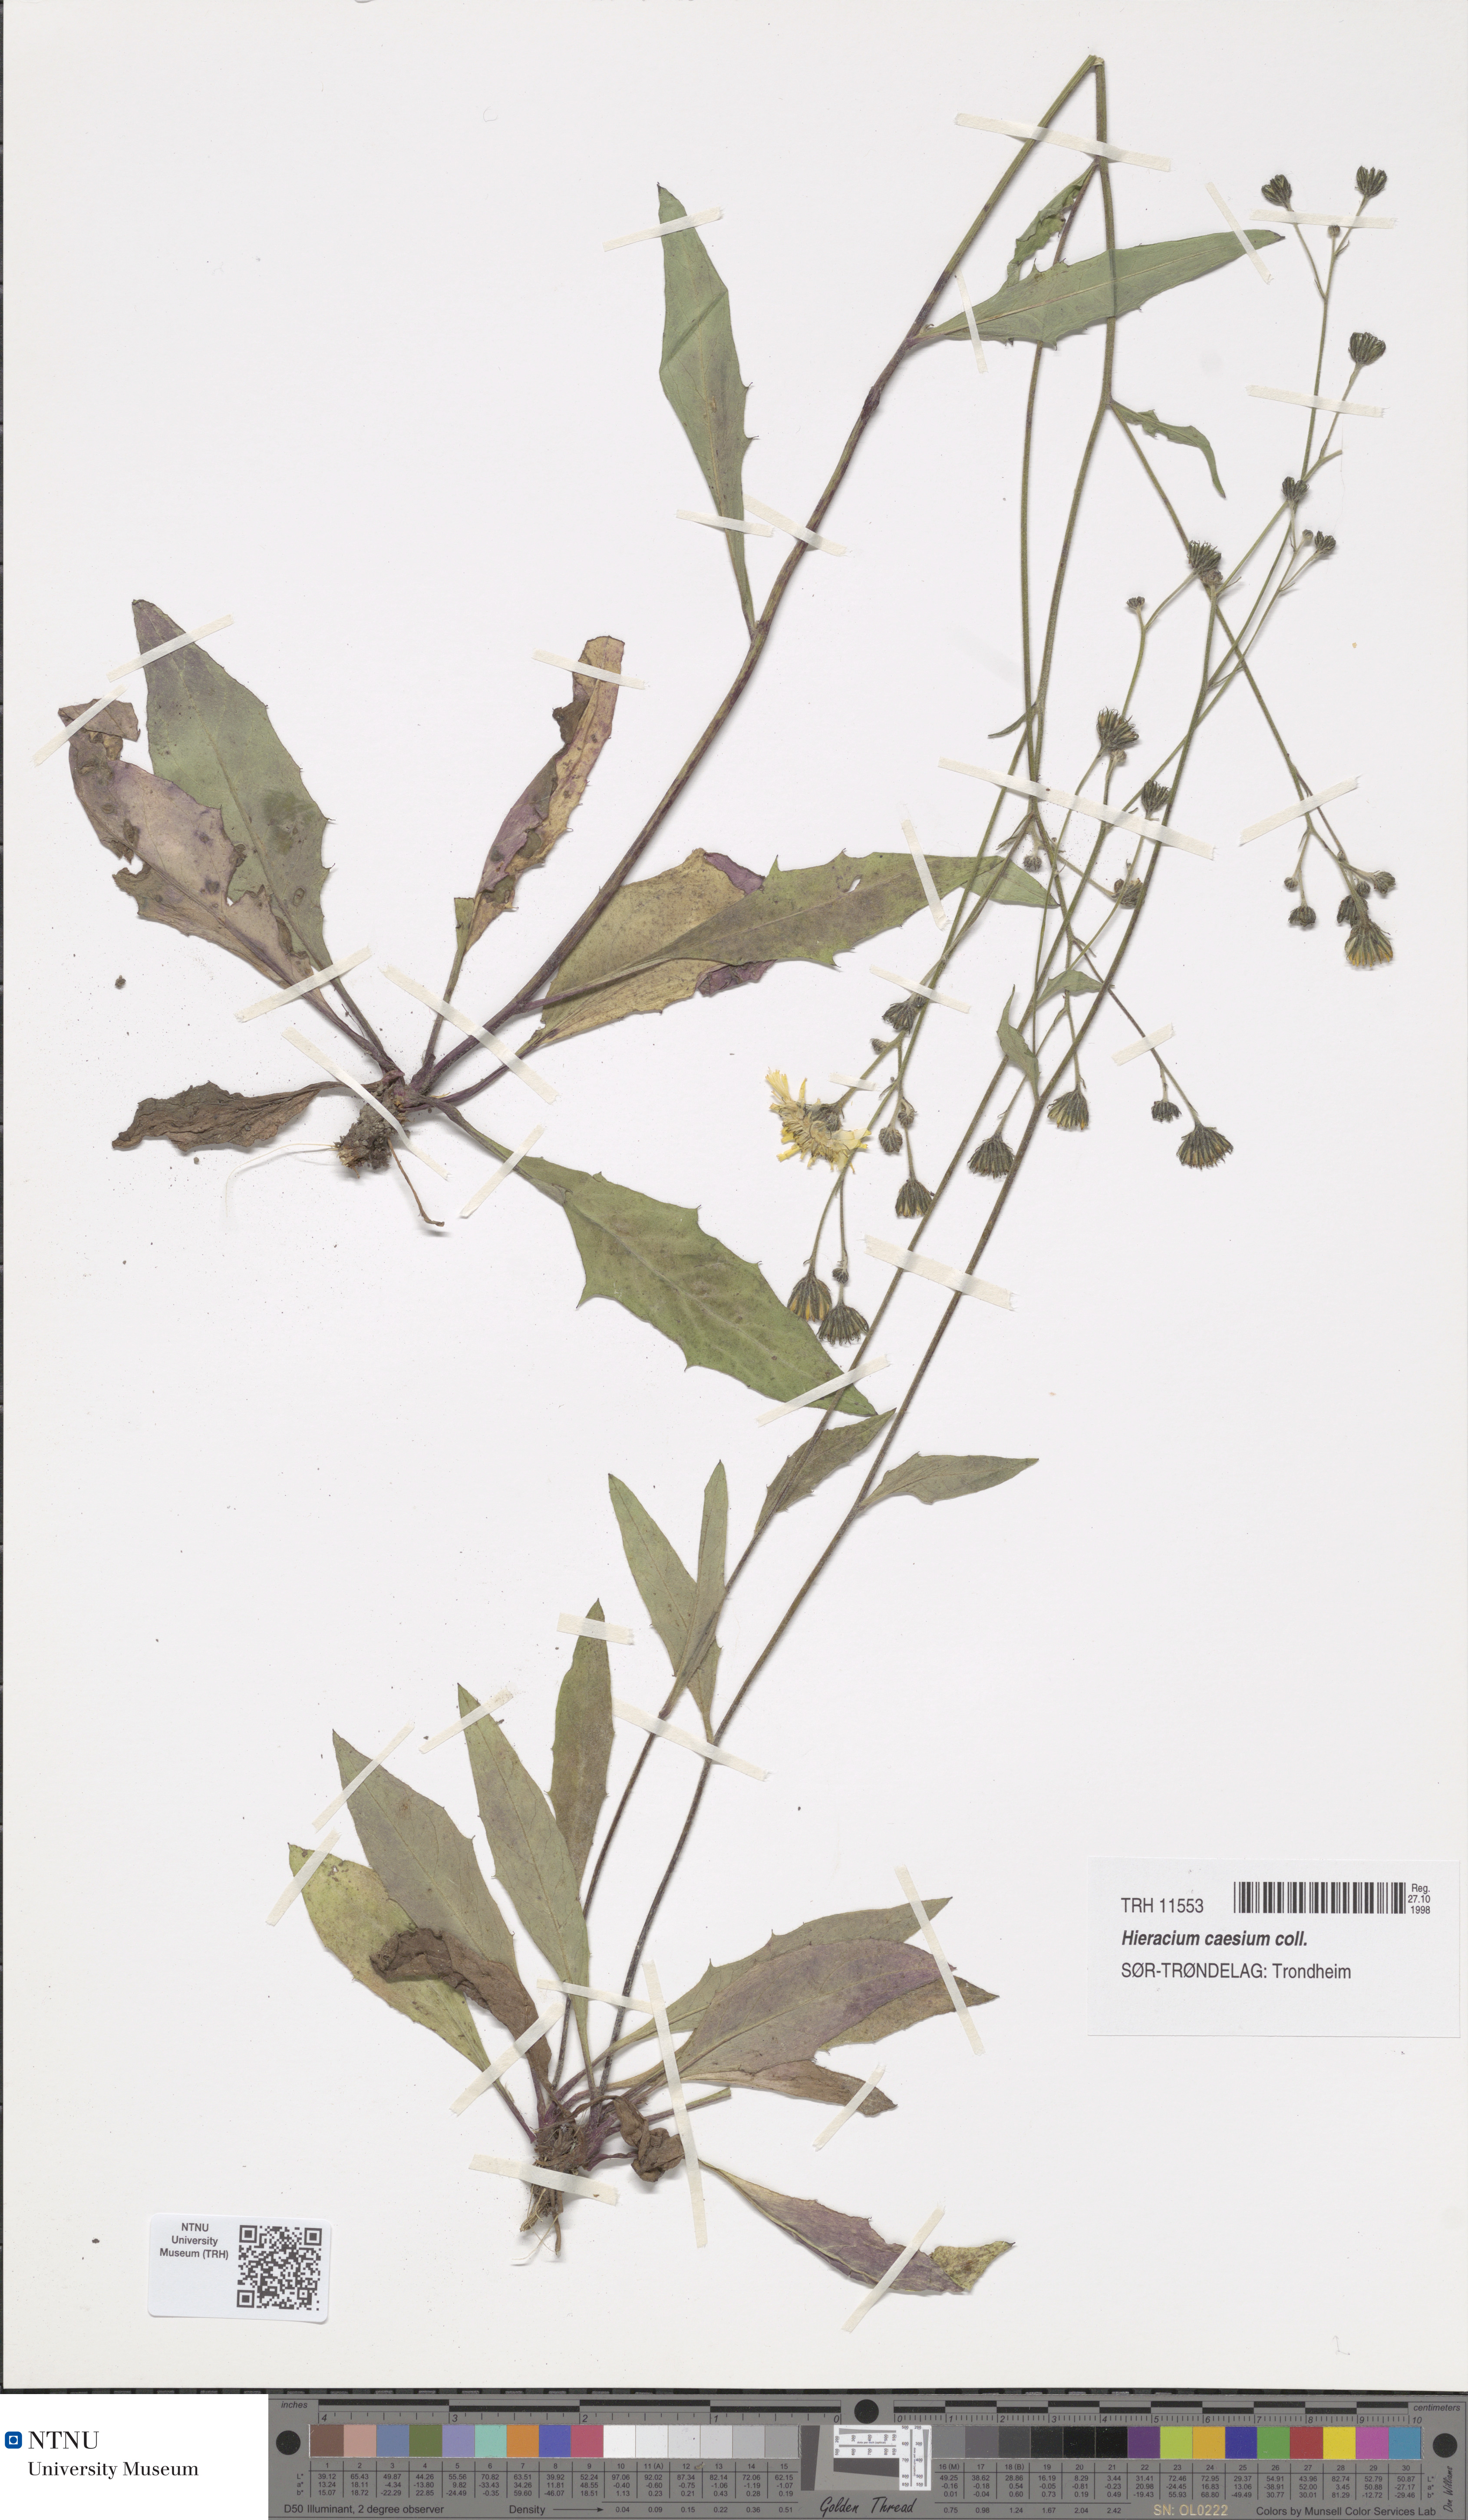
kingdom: Plantae
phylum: Tracheophyta
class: Magnoliopsida
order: Asterales
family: Asteraceae
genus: Hieracium
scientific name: Hieracium caesium
